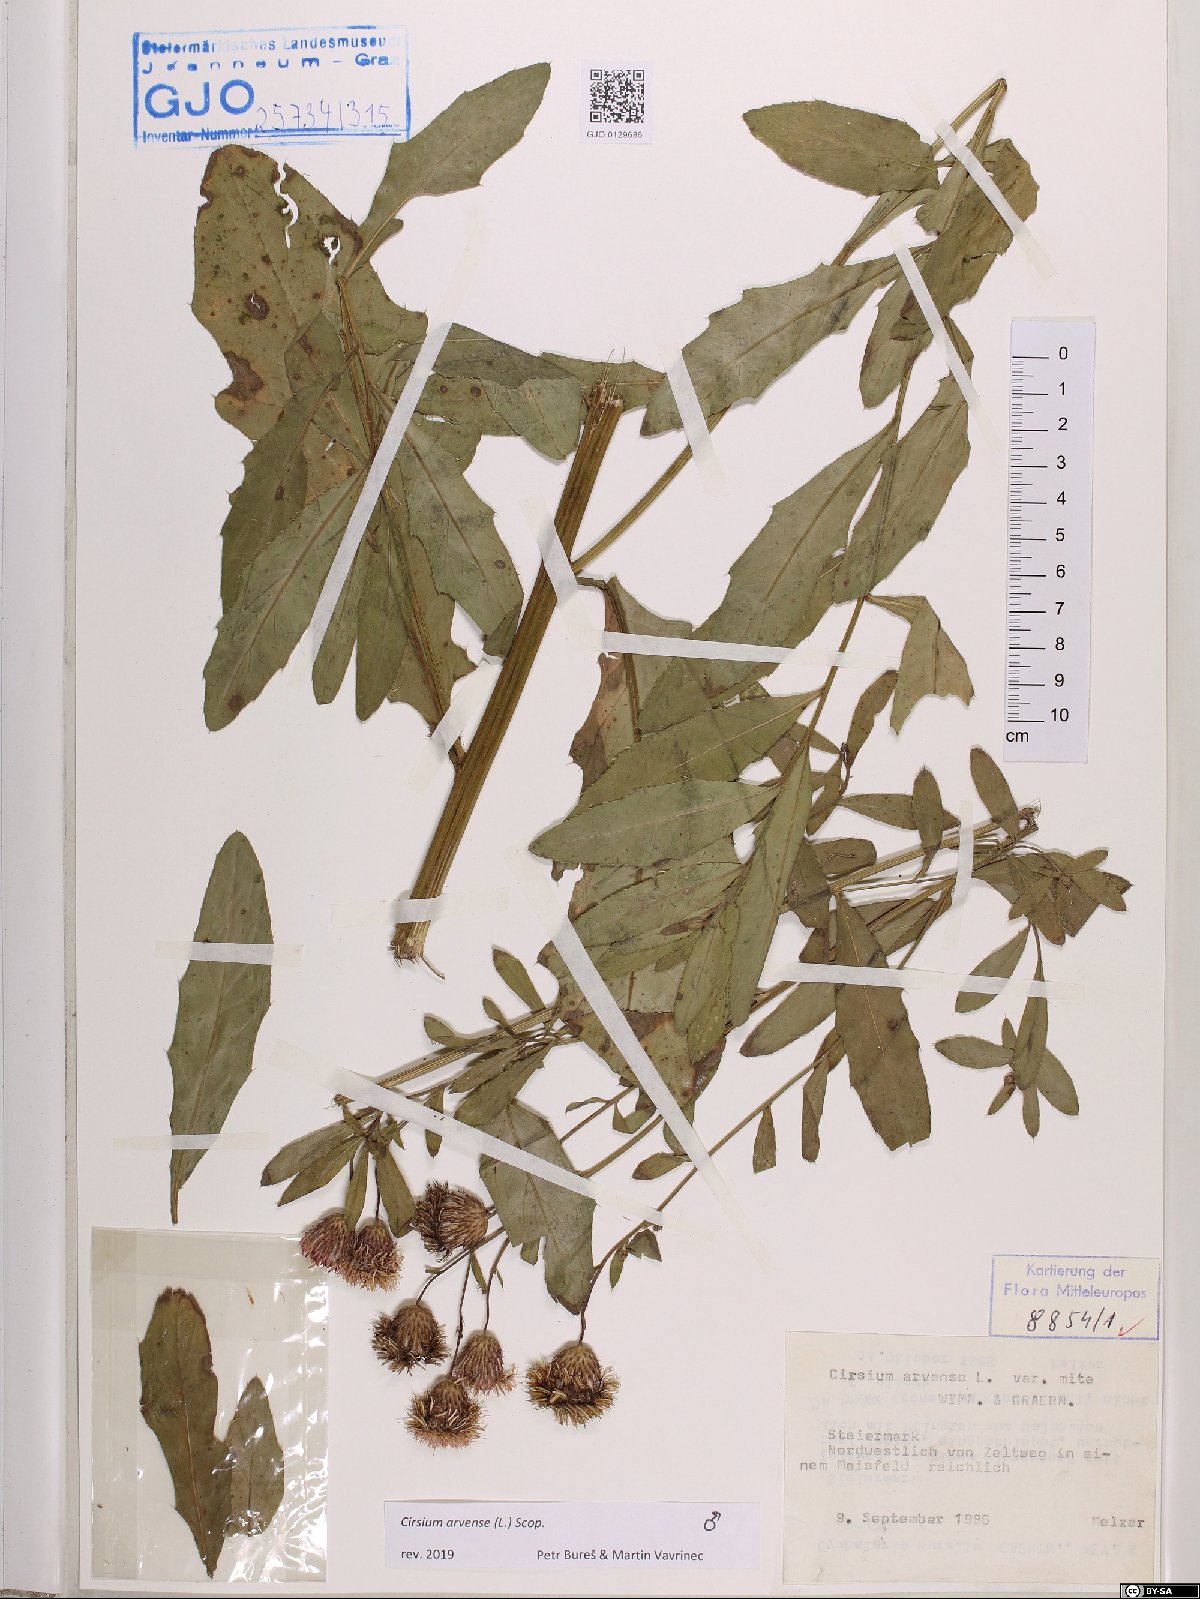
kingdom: Plantae
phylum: Tracheophyta
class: Magnoliopsida
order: Asterales
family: Asteraceae
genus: Cirsium
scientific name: Cirsium arvense
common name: Creeping thistle
